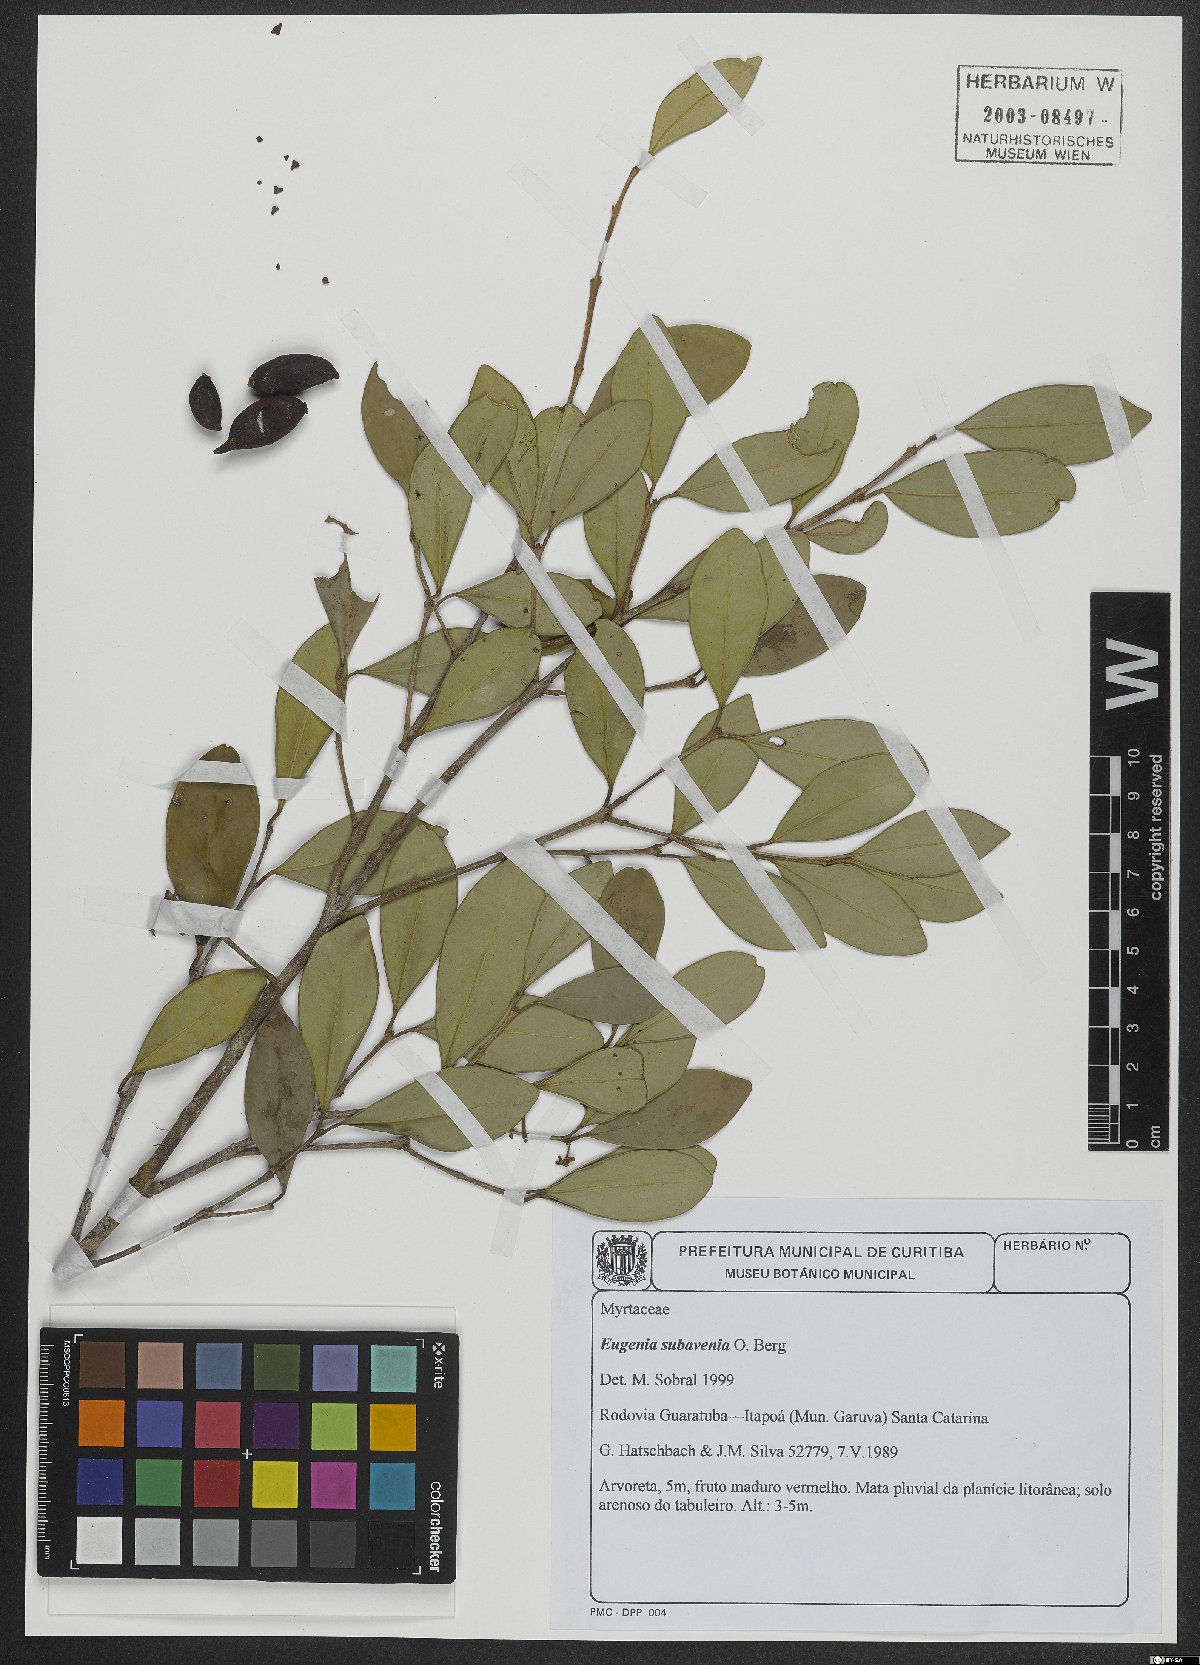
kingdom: Plantae
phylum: Tracheophyta
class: Magnoliopsida
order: Myrtales
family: Myrtaceae
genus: Eugenia
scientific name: Eugenia subavenia
